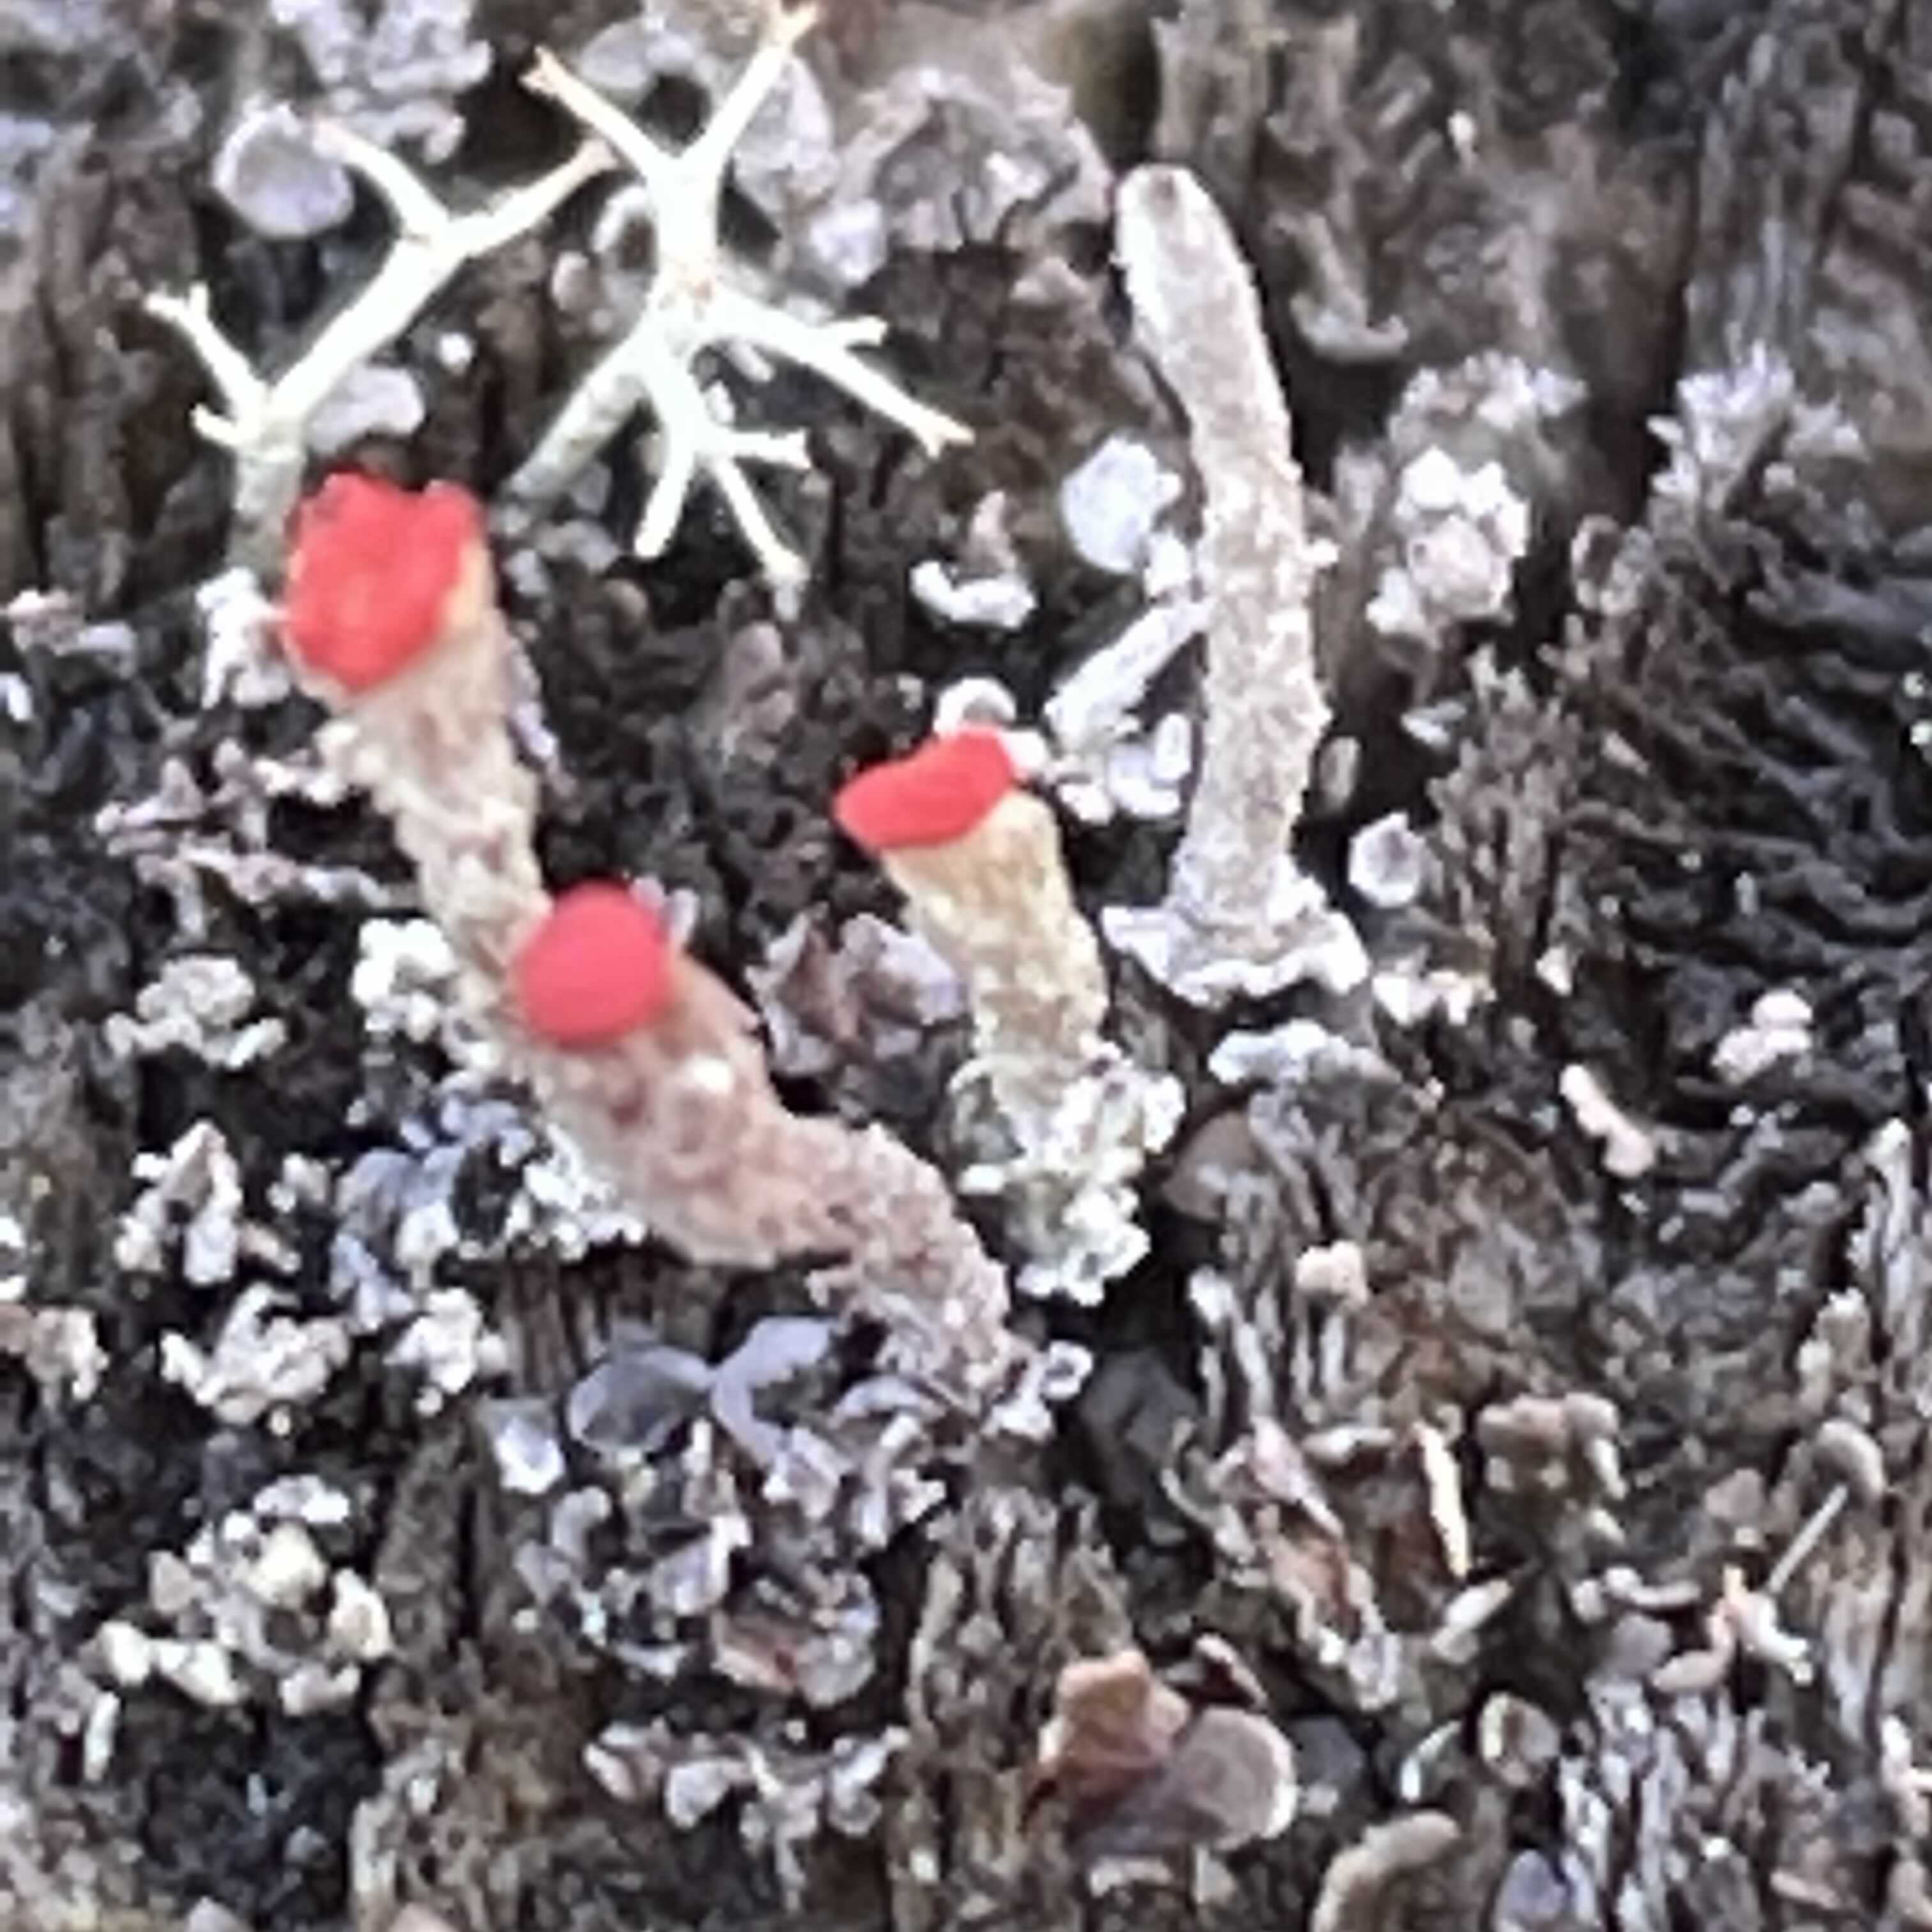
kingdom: Fungi
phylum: Ascomycota
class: Lecanoromycetes
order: Lecanorales
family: Cladoniaceae
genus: Cladonia
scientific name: Cladonia floerkeana
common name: lakrød bægerlav
